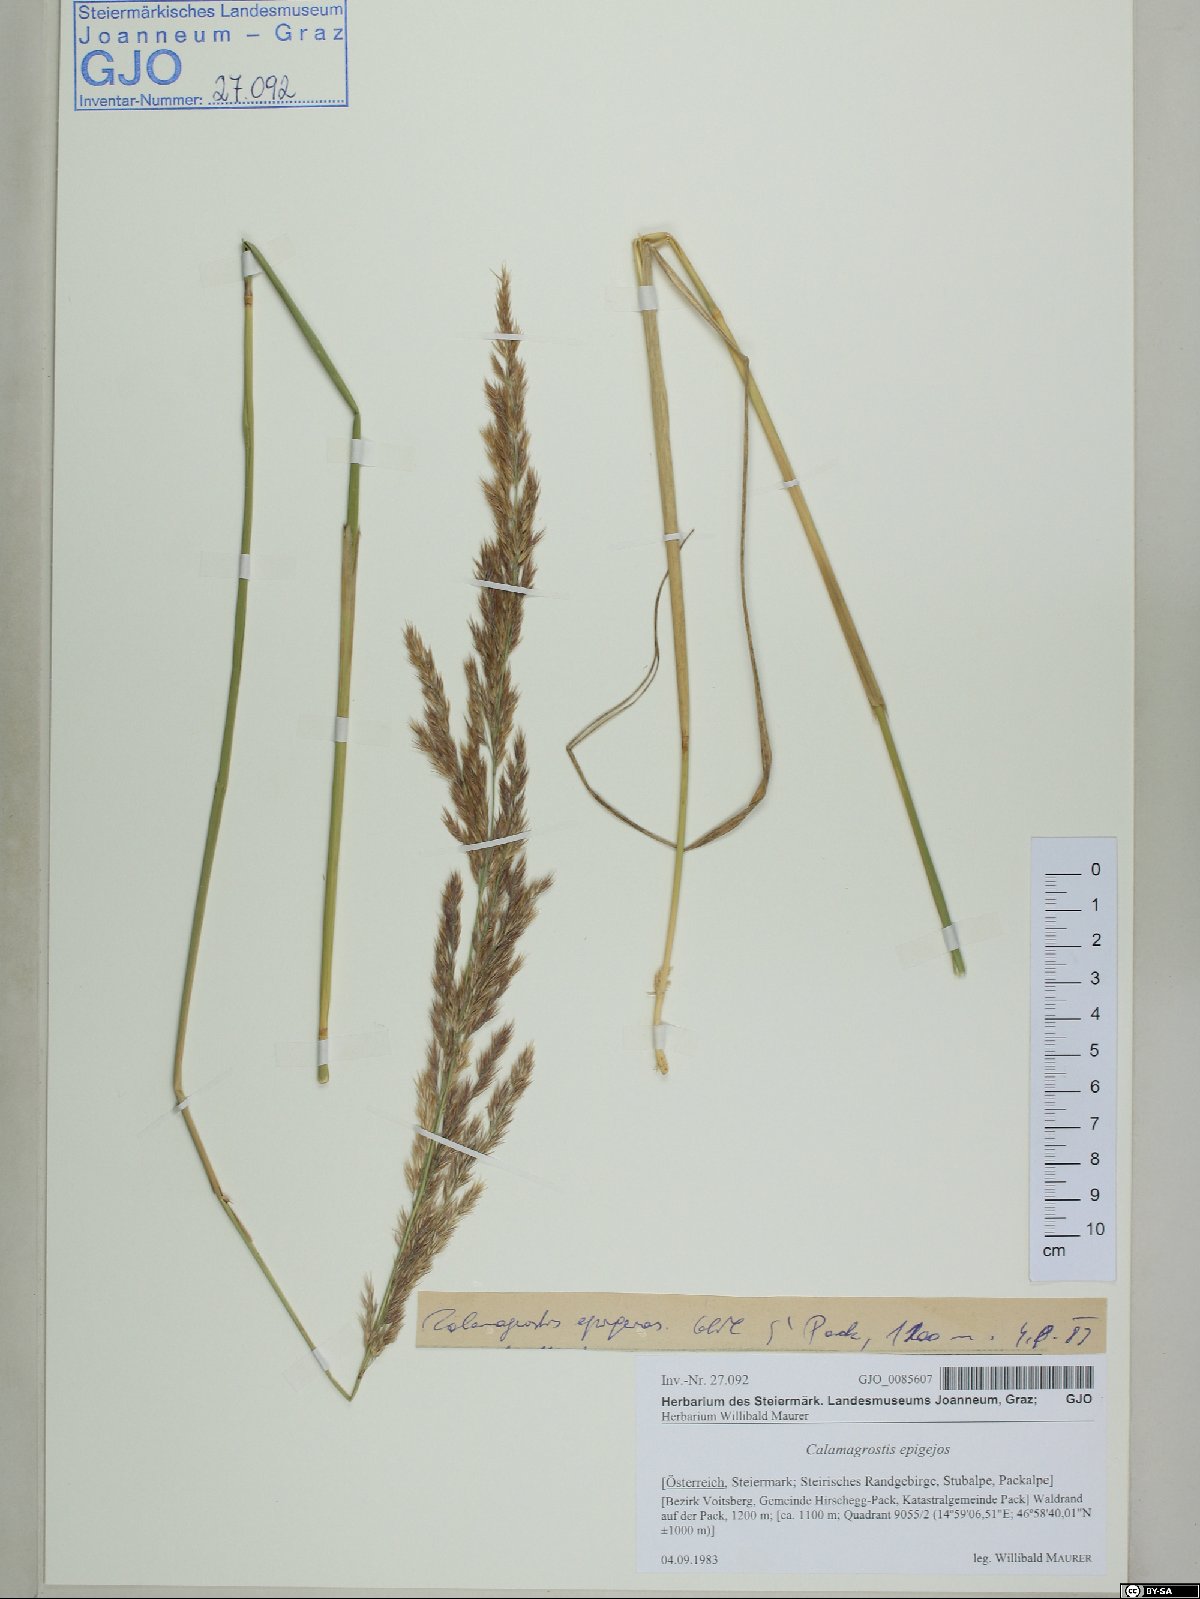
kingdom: Plantae
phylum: Tracheophyta
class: Liliopsida
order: Poales
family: Poaceae
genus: Calamagrostis
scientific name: Calamagrostis epigejos
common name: Wood small-reed
